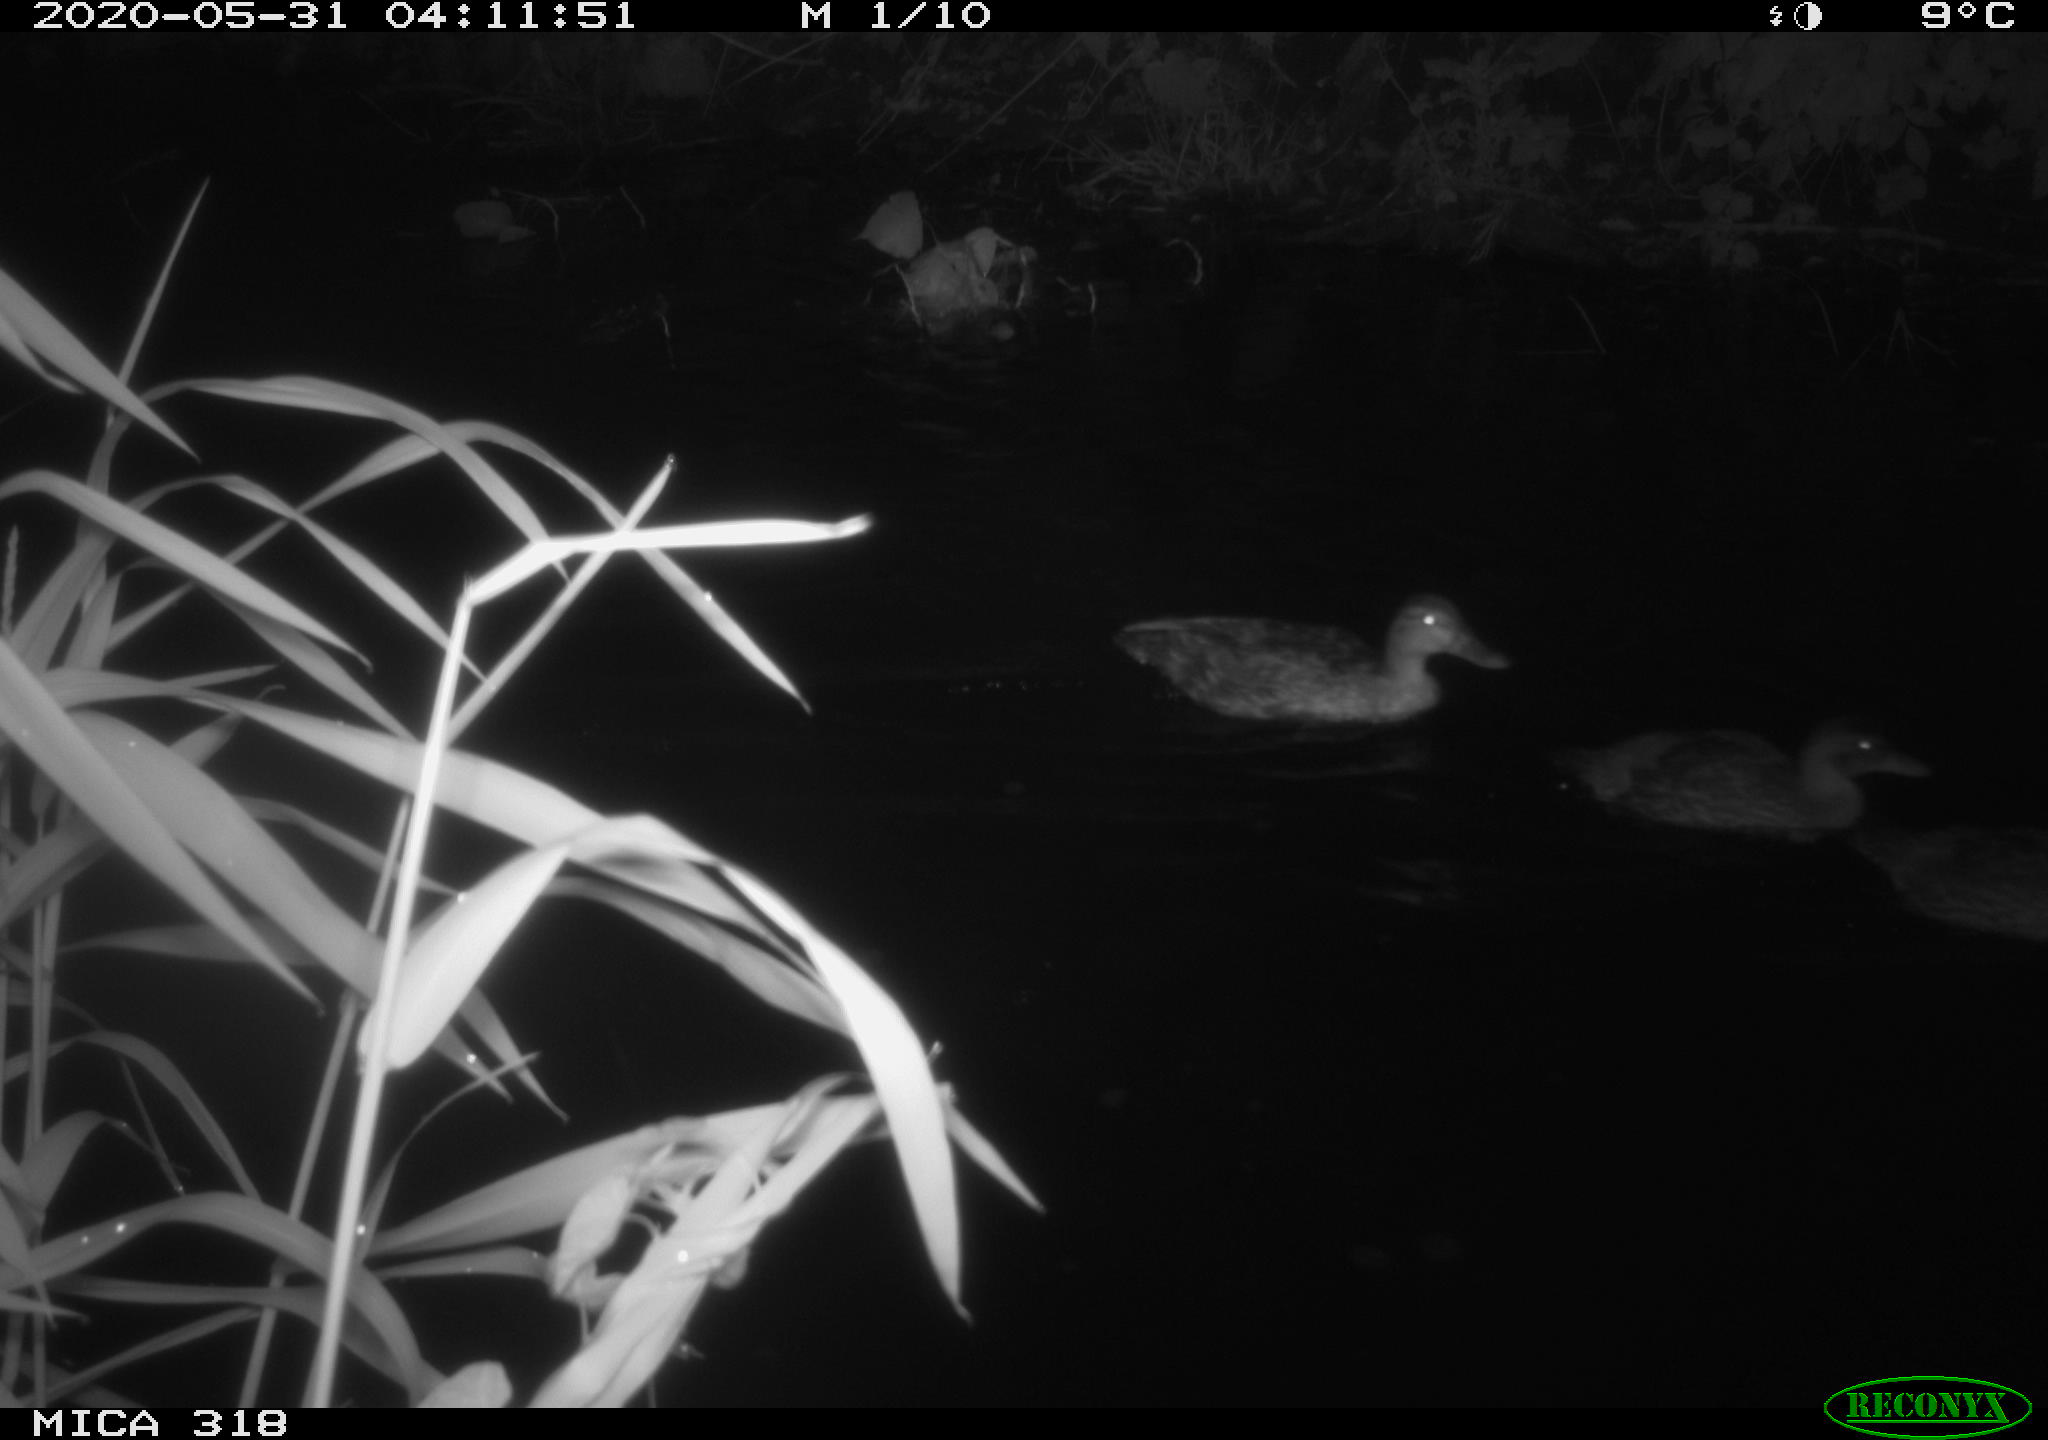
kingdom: Animalia
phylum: Chordata
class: Aves
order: Anseriformes
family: Anatidae
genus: Anas
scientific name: Anas platyrhynchos
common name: Mallard
